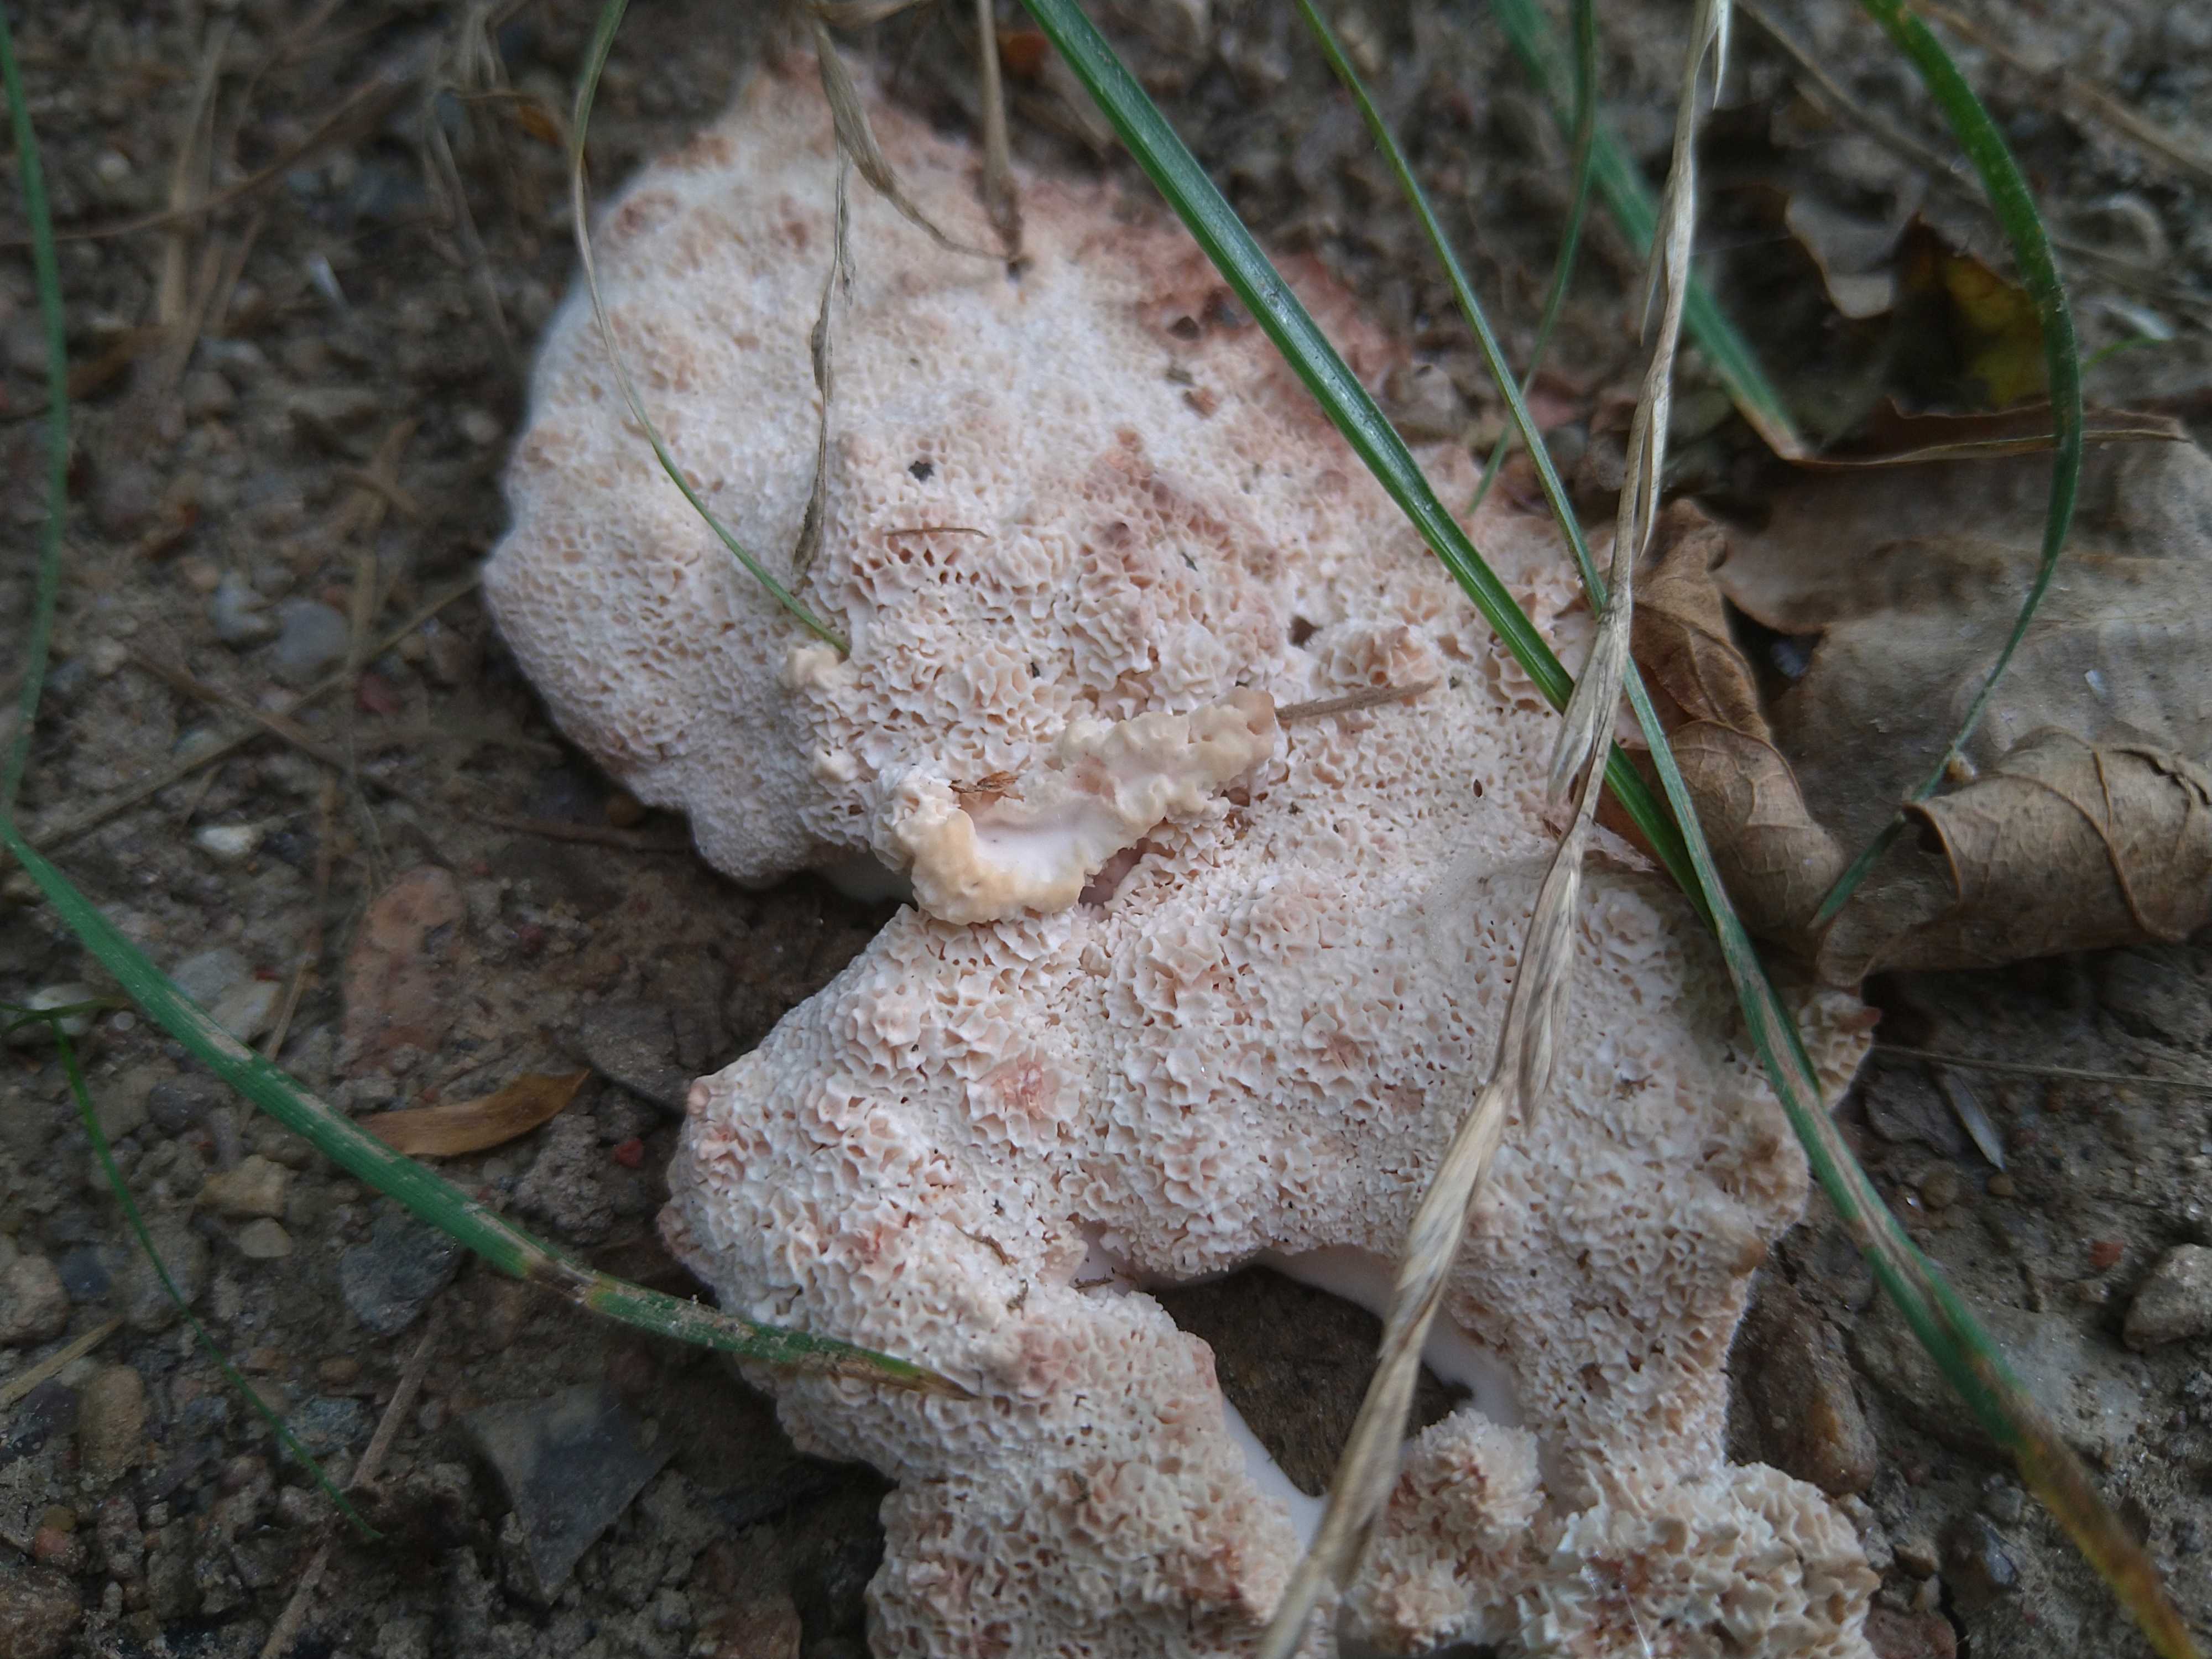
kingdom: Fungi
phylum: Basidiomycota
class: Agaricomycetes
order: Polyporales
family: Podoscyphaceae
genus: Abortiporus
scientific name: Abortiporus biennis
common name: rødmende pjalteporesvamp
